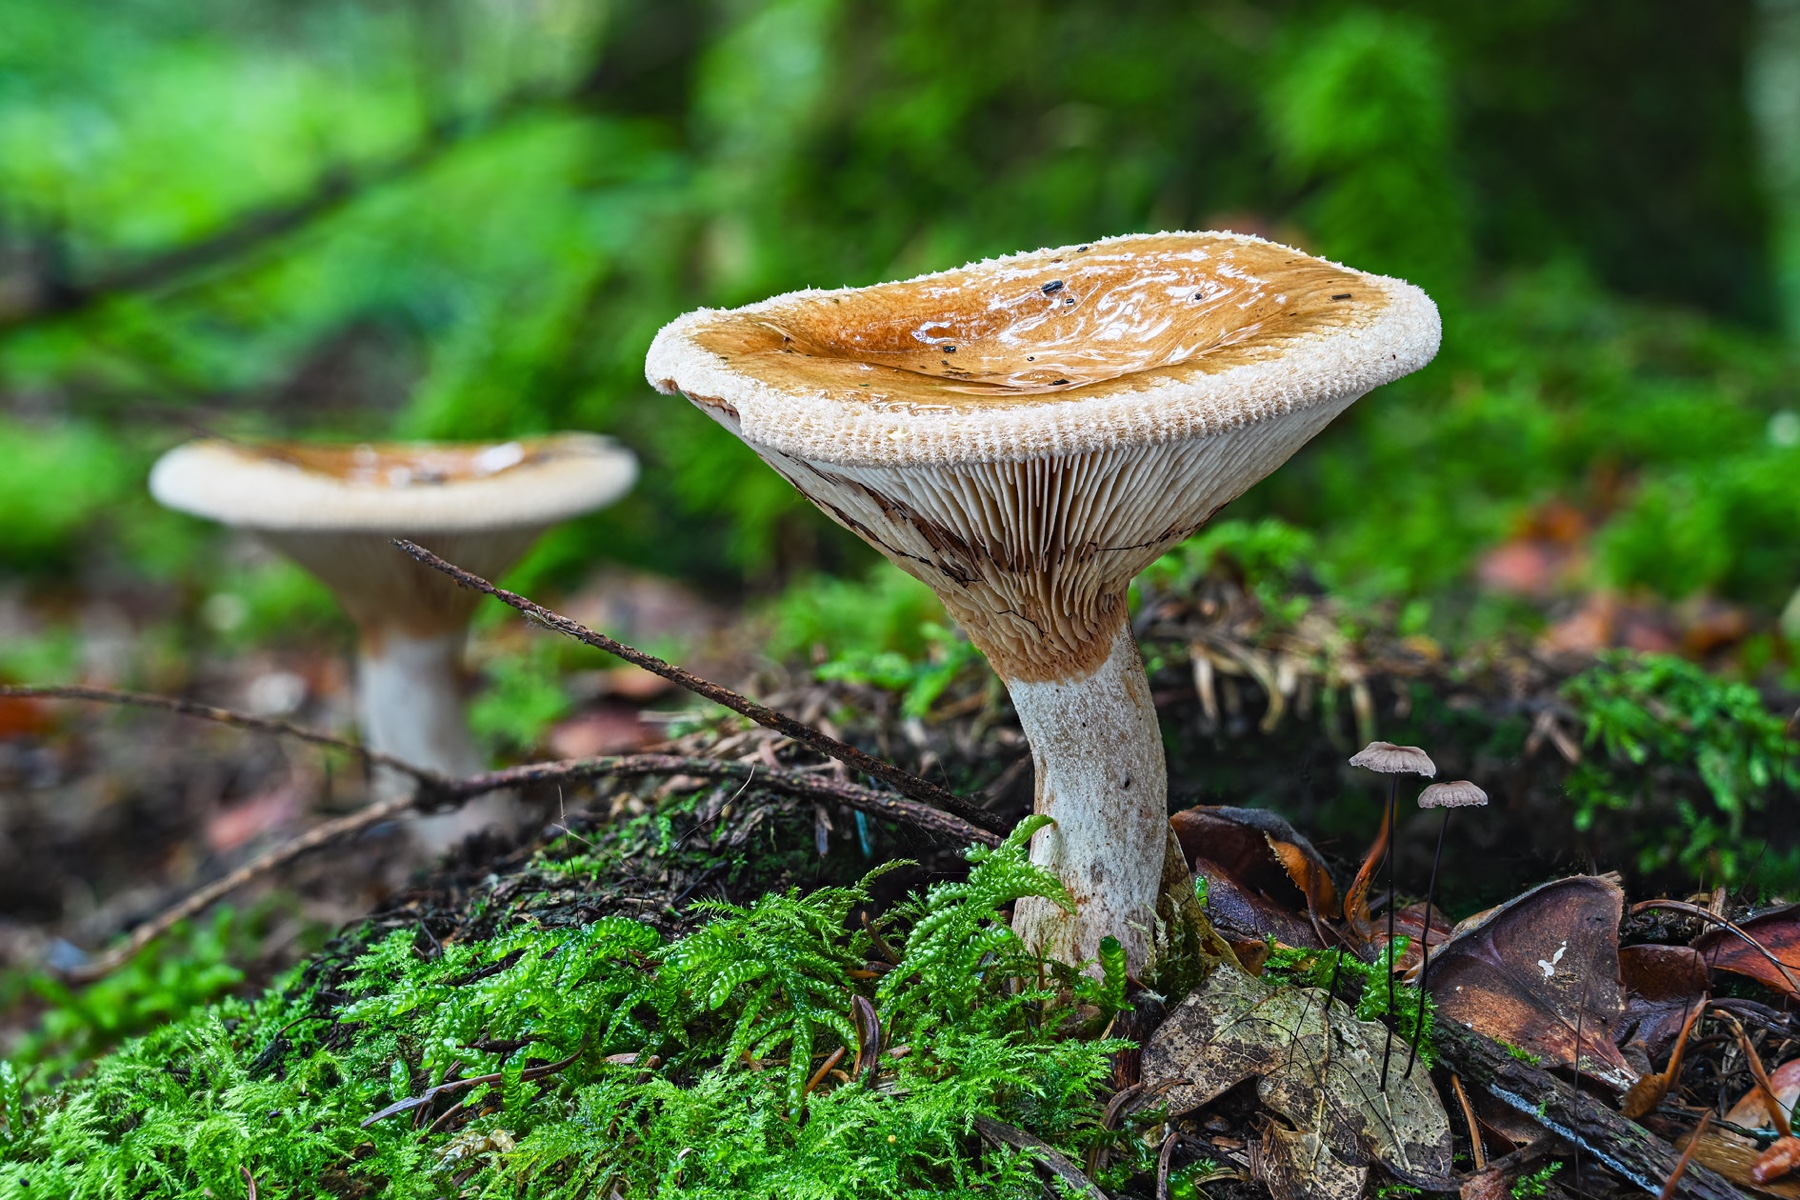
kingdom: Fungi
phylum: Basidiomycota
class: Agaricomycetes
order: Boletales
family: Paxillaceae
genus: Paxillus
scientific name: Paxillus involutus
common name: almindelig netbladhat
